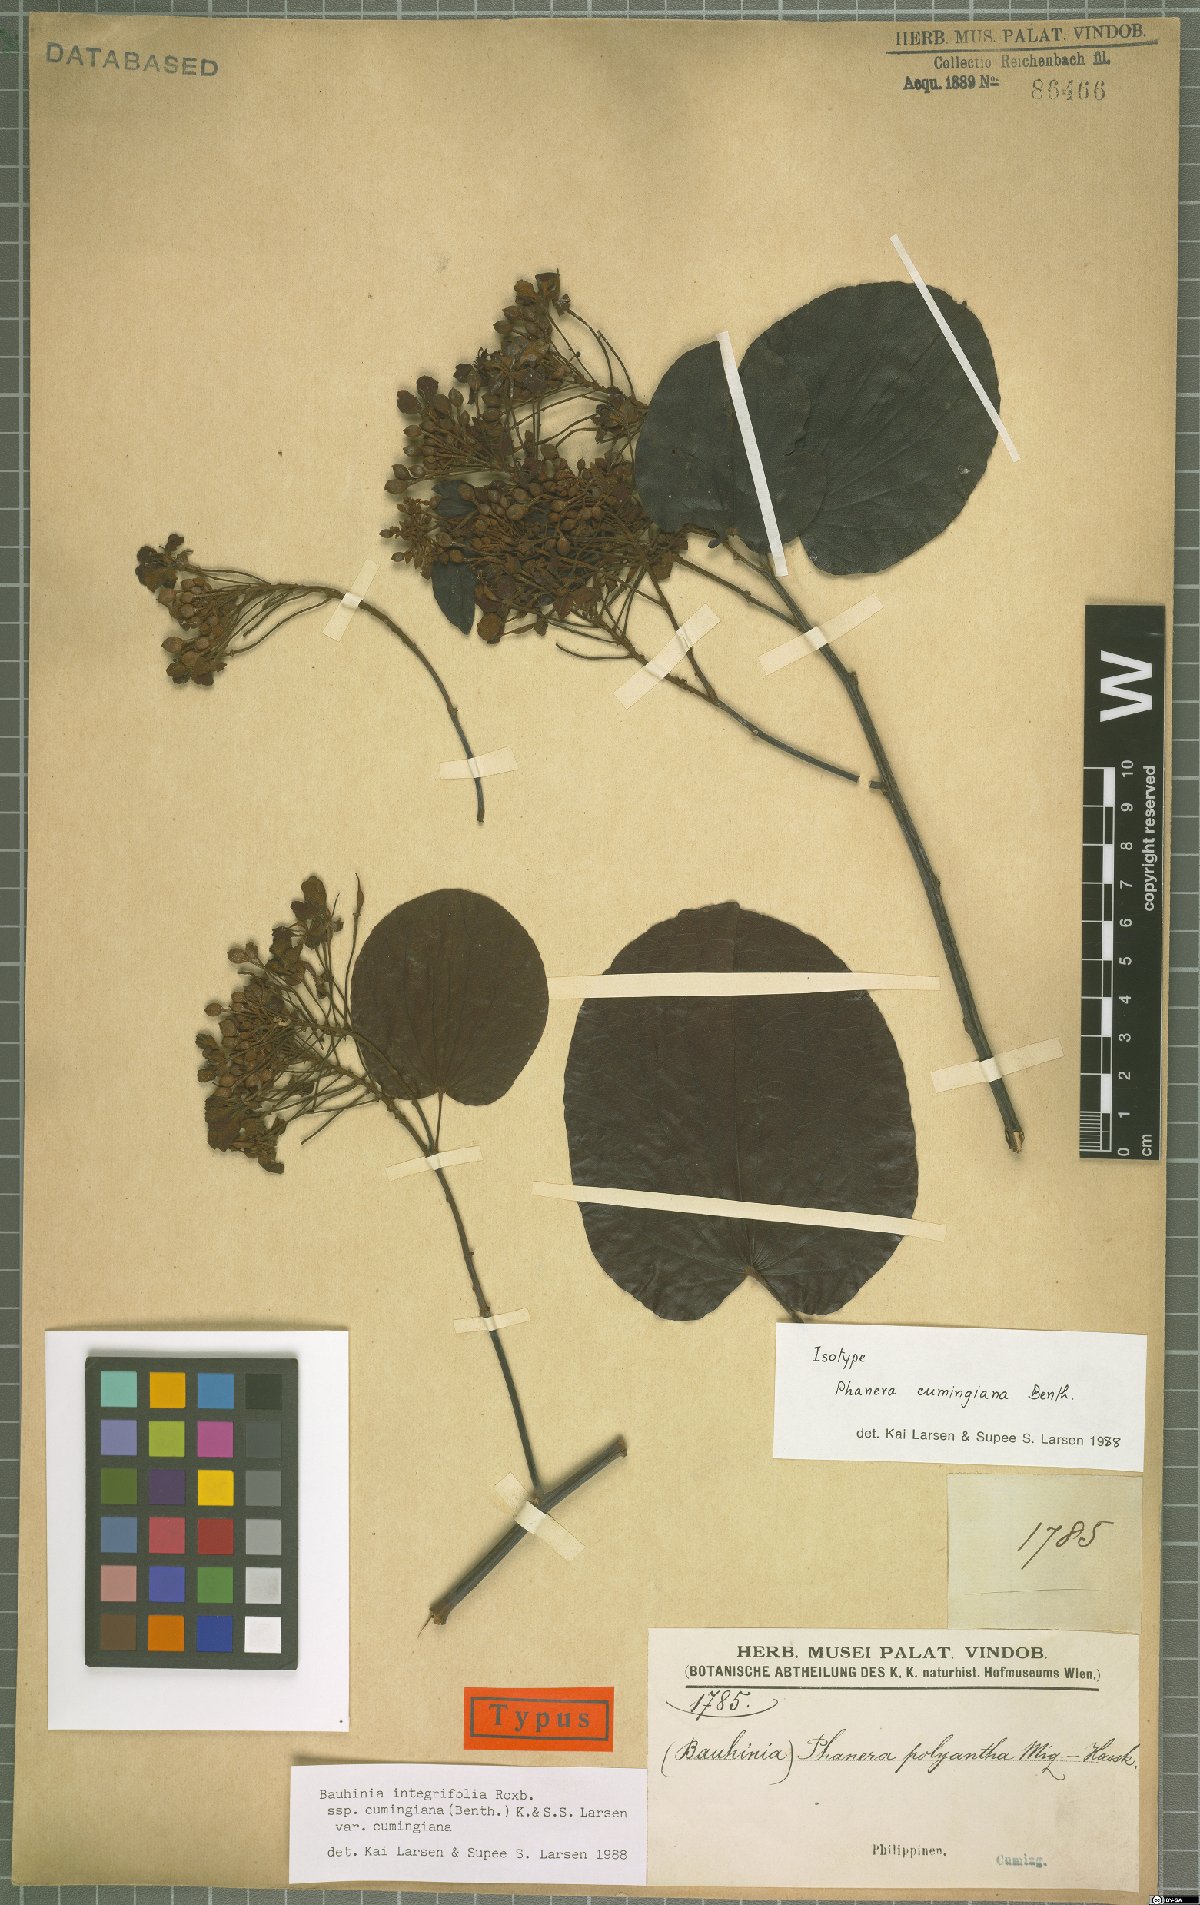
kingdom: Plantae
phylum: Tracheophyta
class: Magnoliopsida
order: Fabales
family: Fabaceae
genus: Phanera
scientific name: Phanera integrifolia
